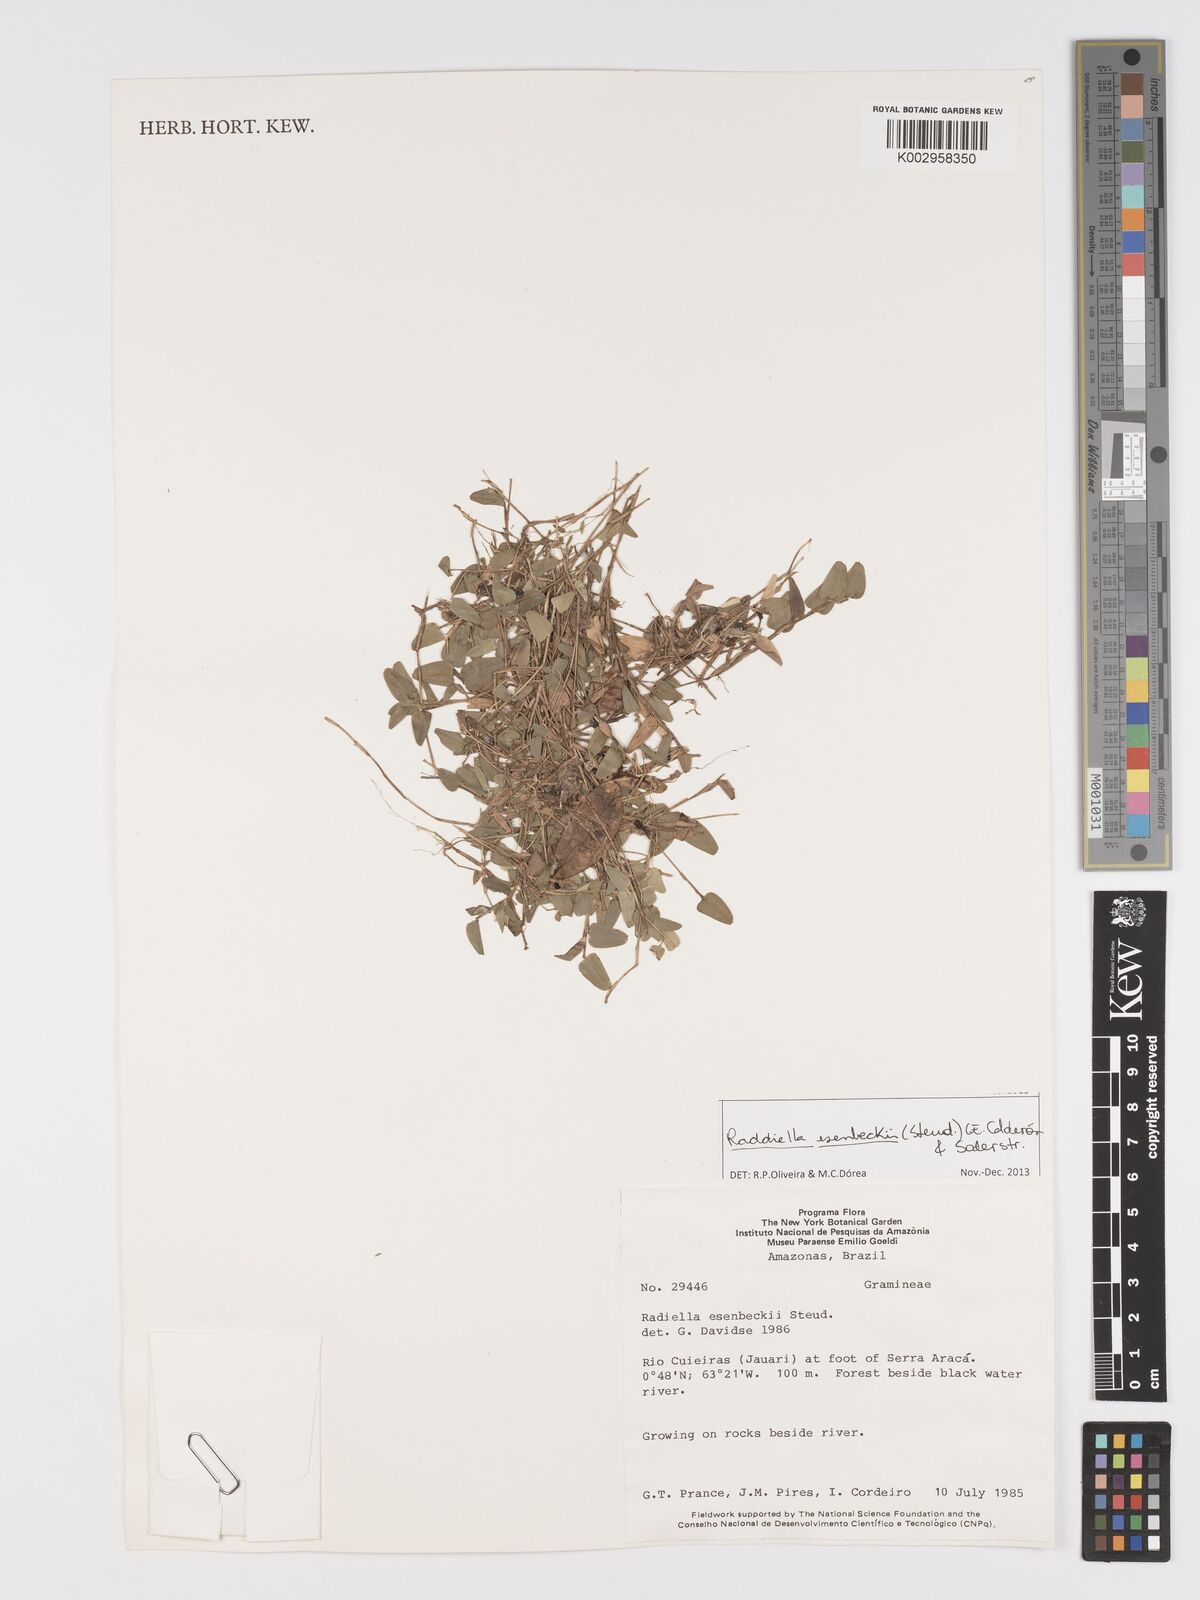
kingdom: Plantae
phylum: Tracheophyta
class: Liliopsida
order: Poales
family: Poaceae
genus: Raddiella
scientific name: Raddiella esenbeckii
